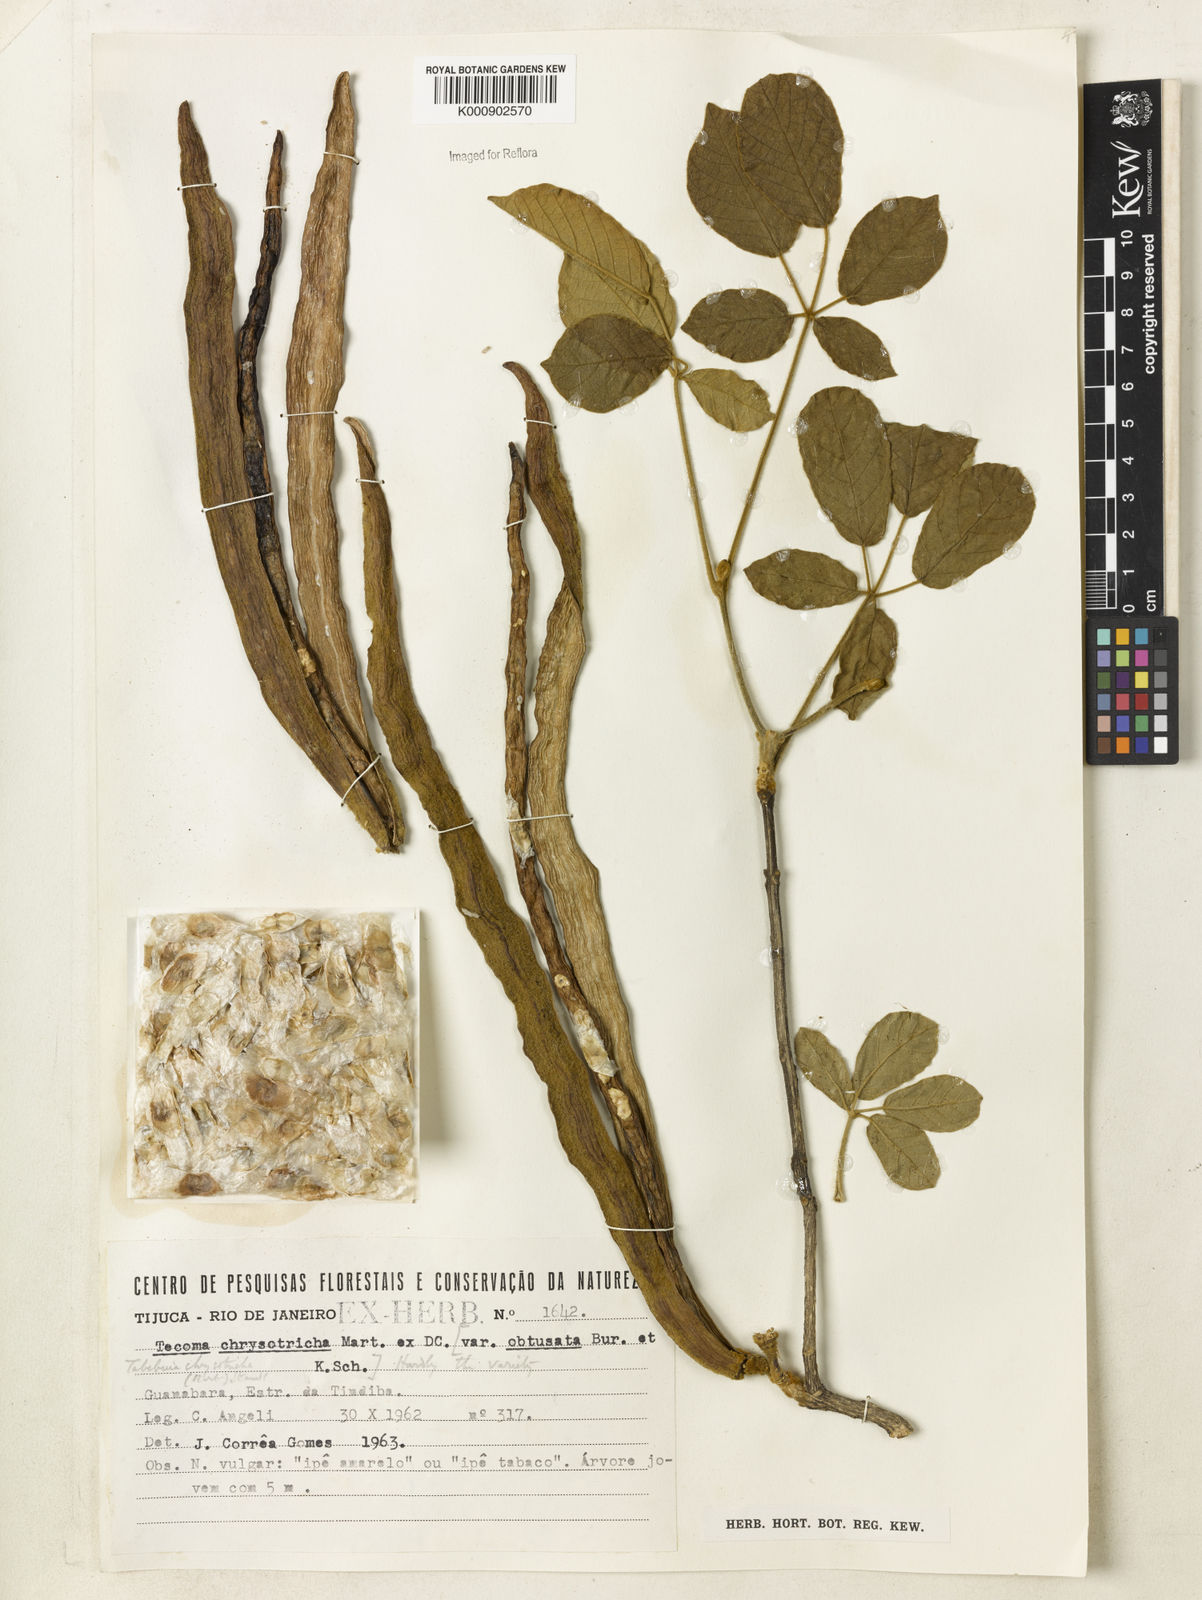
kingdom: Plantae
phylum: Tracheophyta
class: Magnoliopsida
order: Lamiales
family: Bignoniaceae
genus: Handroanthus
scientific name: Handroanthus chrysotrichus
